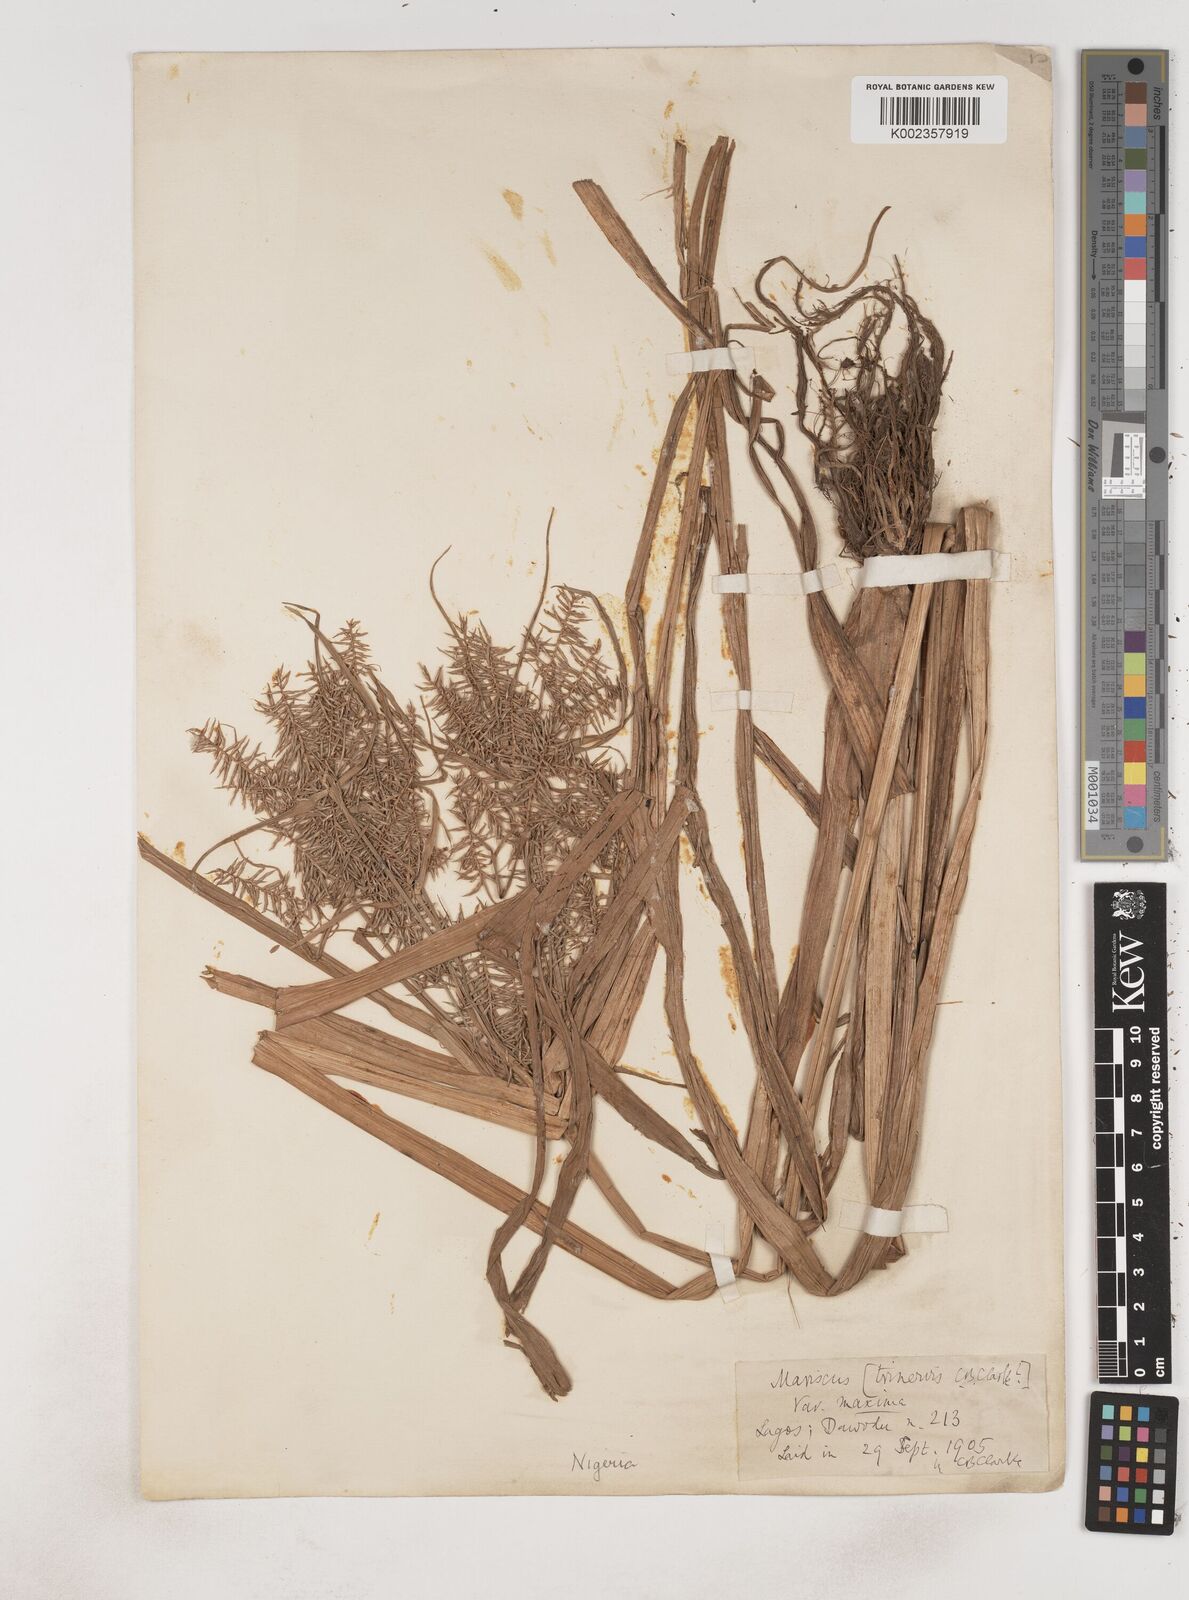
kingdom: Plantae
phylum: Tracheophyta
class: Liliopsida
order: Poales
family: Cyperaceae
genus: Cyperus
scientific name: Cyperus odoratus
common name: Fragrant flatsedge
